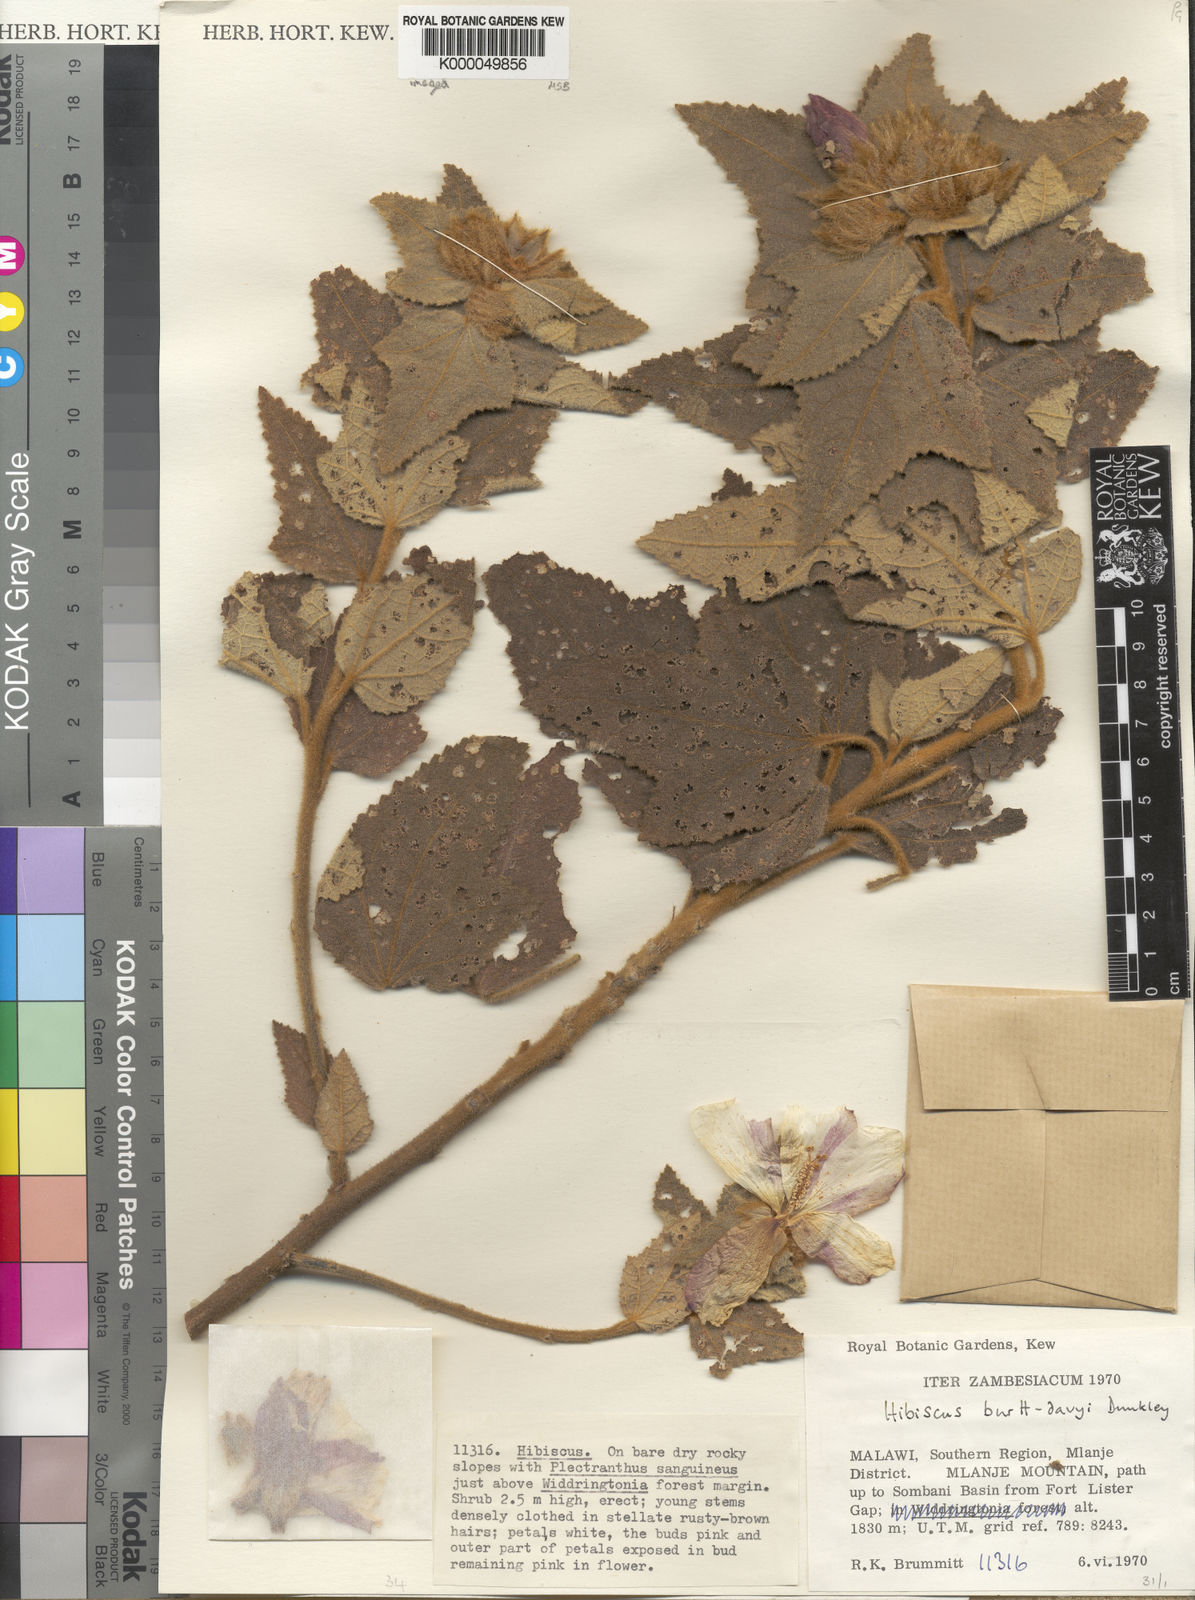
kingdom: Plantae
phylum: Tracheophyta
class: Magnoliopsida
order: Malvales
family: Malvaceae
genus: Hibiscus
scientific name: Hibiscus burtt-davyi
